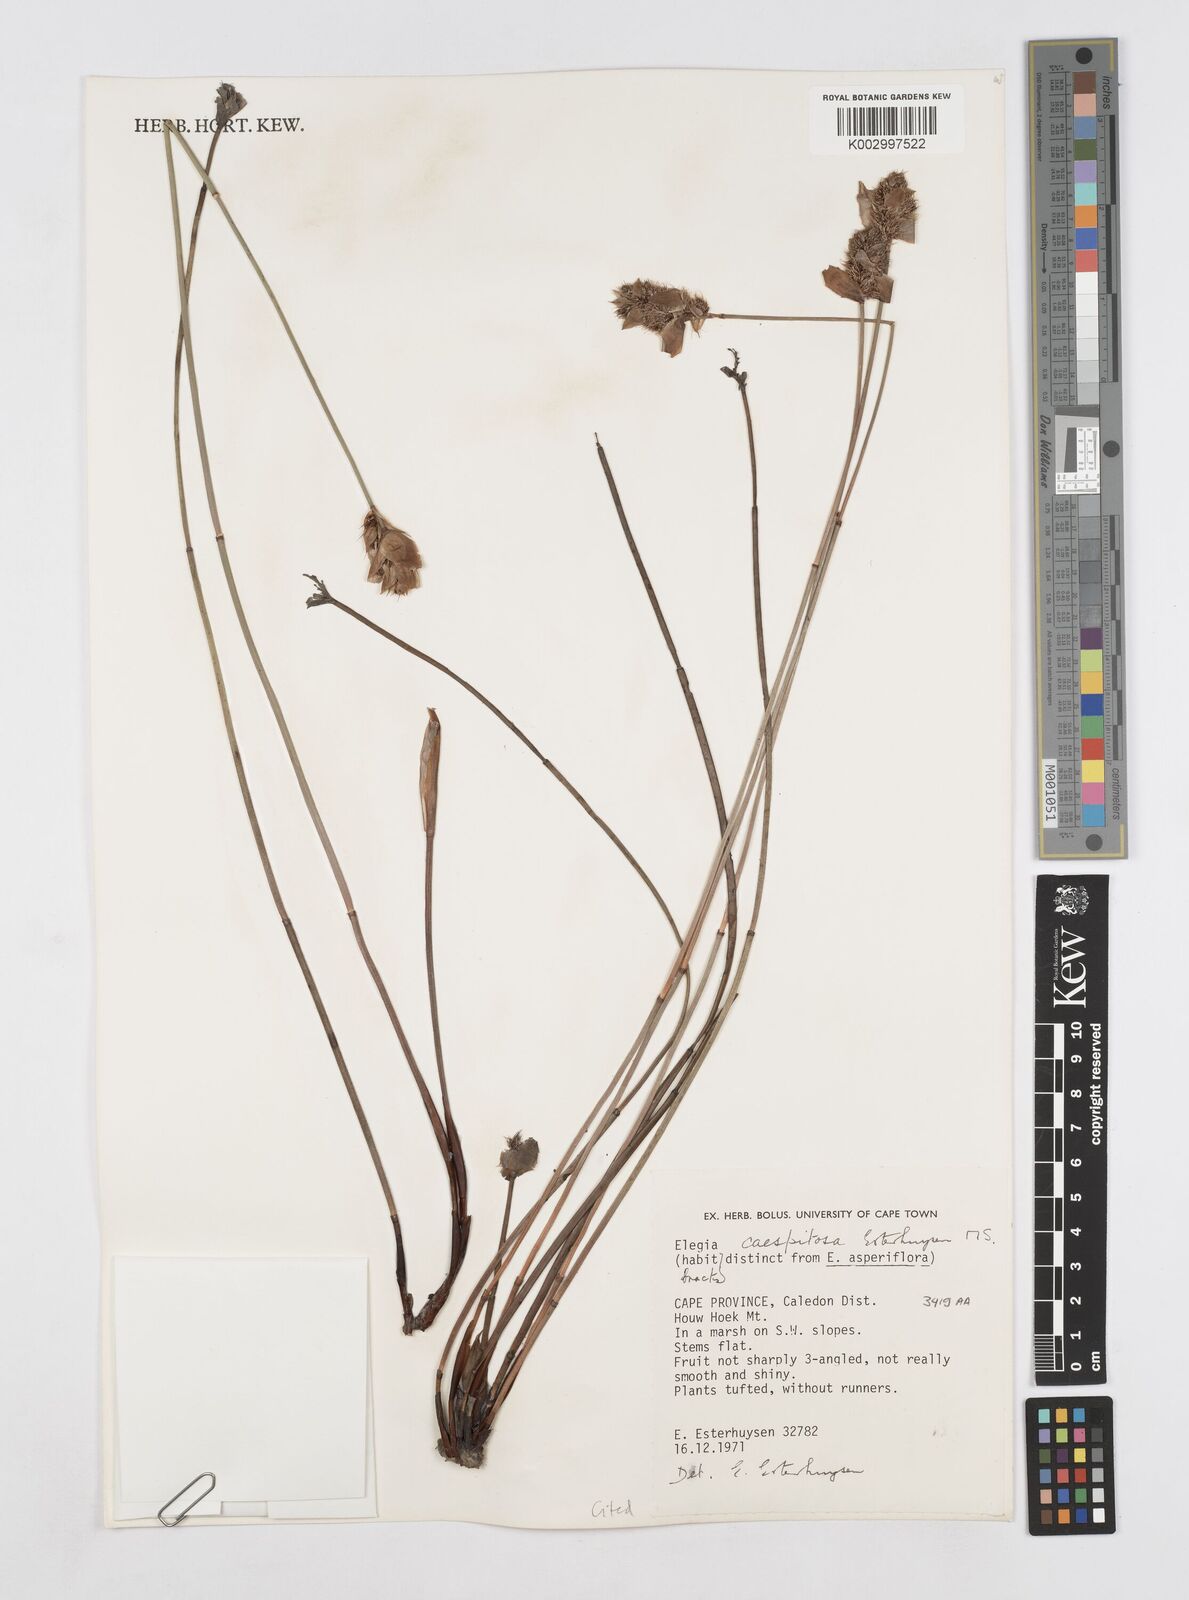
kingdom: Plantae
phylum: Tracheophyta
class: Liliopsida
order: Poales
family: Restionaceae
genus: Elegia
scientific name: Elegia caespitosa
